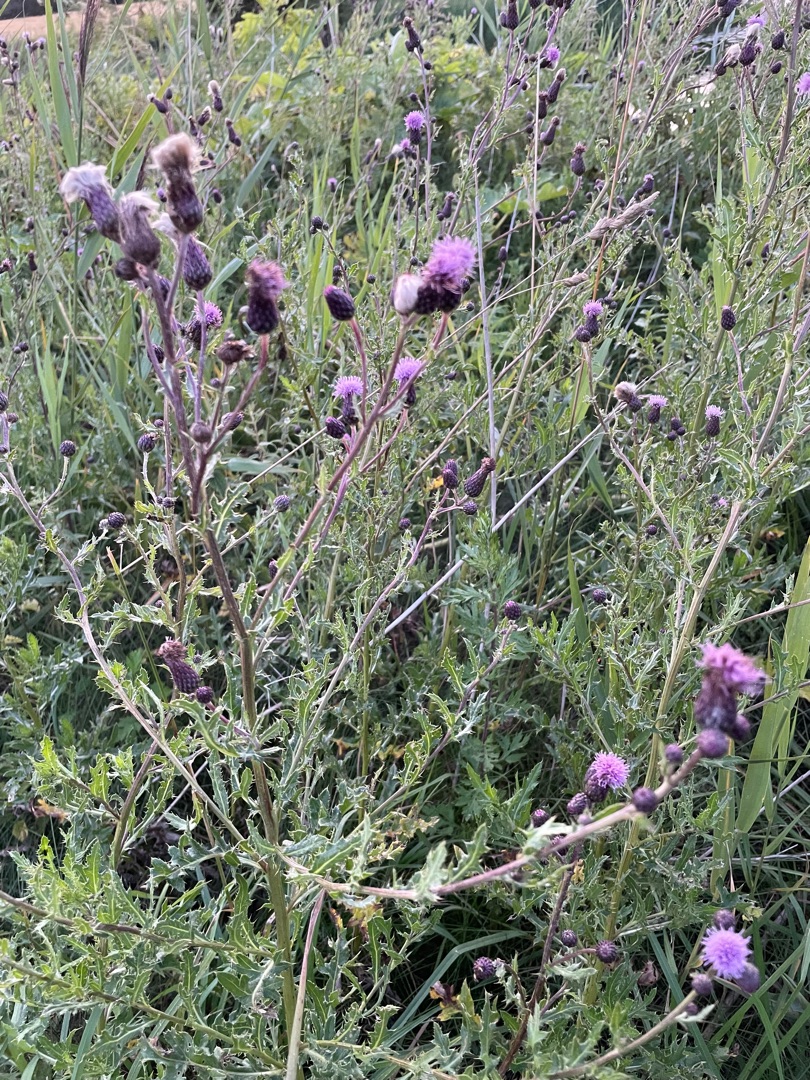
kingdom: Plantae
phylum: Tracheophyta
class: Magnoliopsida
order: Asterales
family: Asteraceae
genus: Cirsium
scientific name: Cirsium arvense
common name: Ager-tidsel
